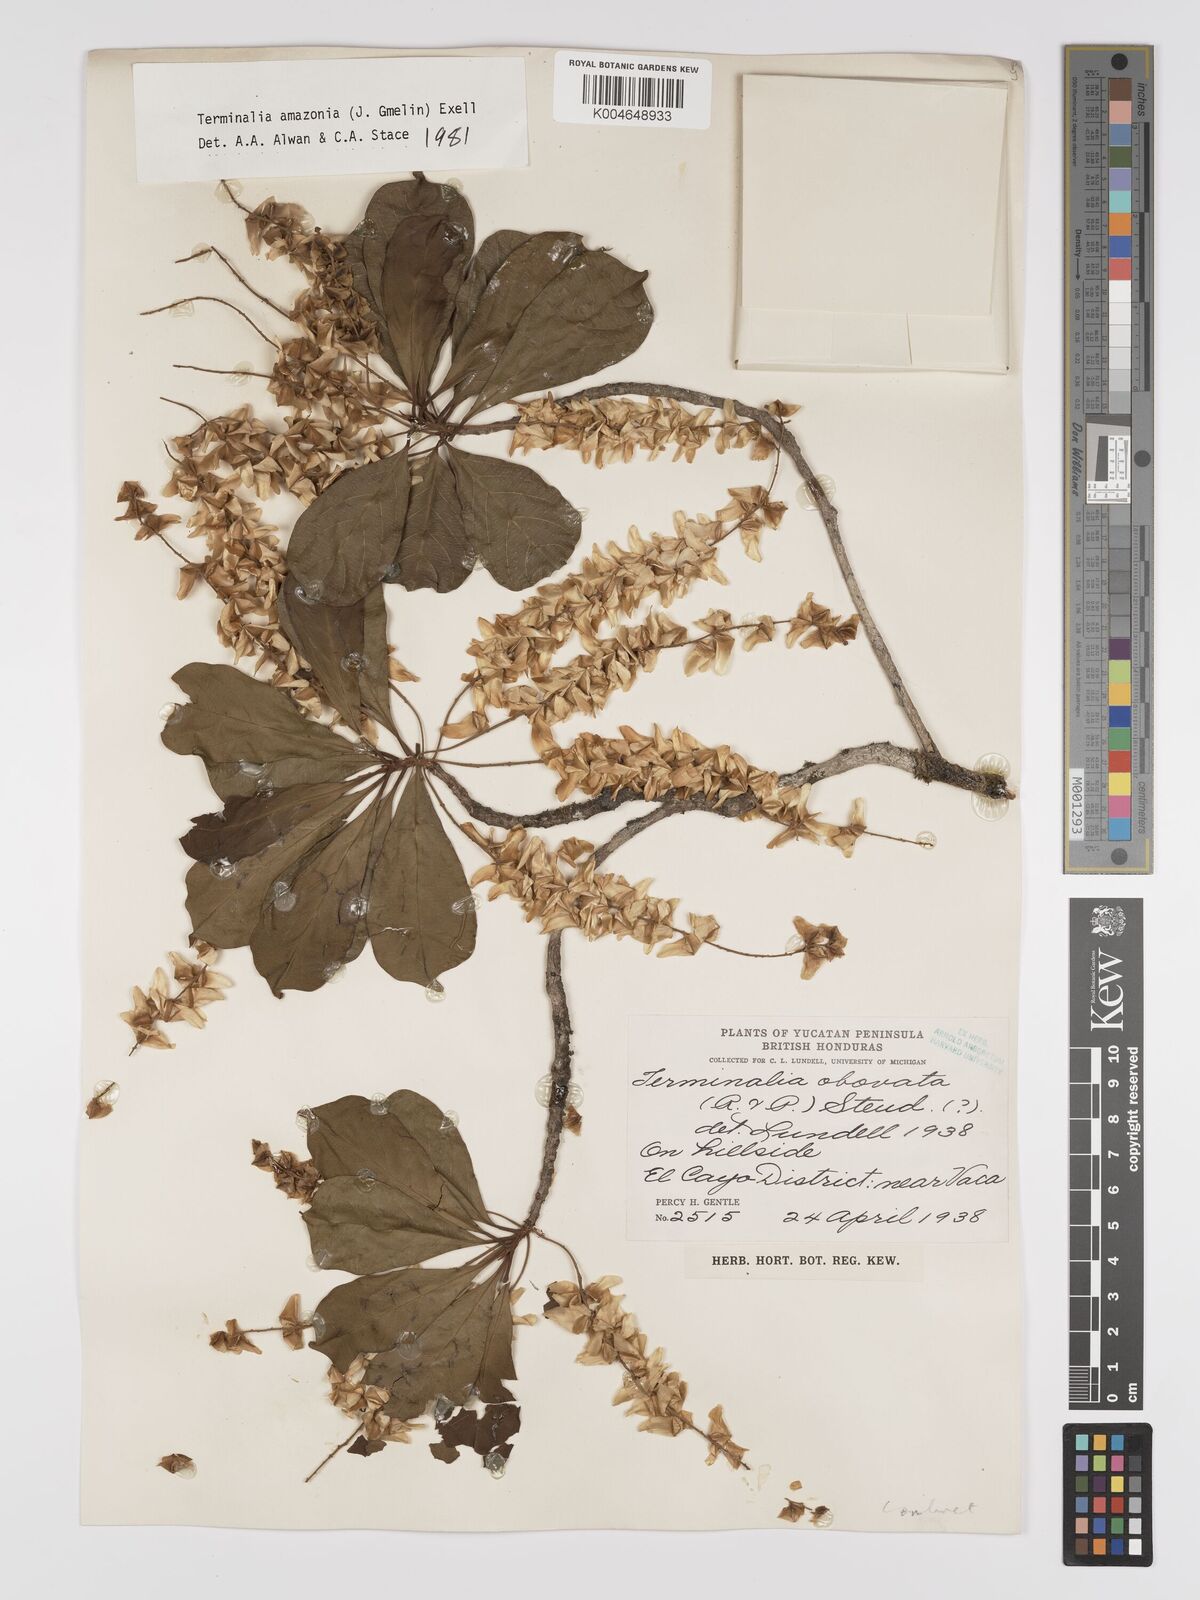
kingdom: Plantae
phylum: Tracheophyta
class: Magnoliopsida
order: Myrtales
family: Combretaceae
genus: Terminalia
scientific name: Terminalia amazonica
